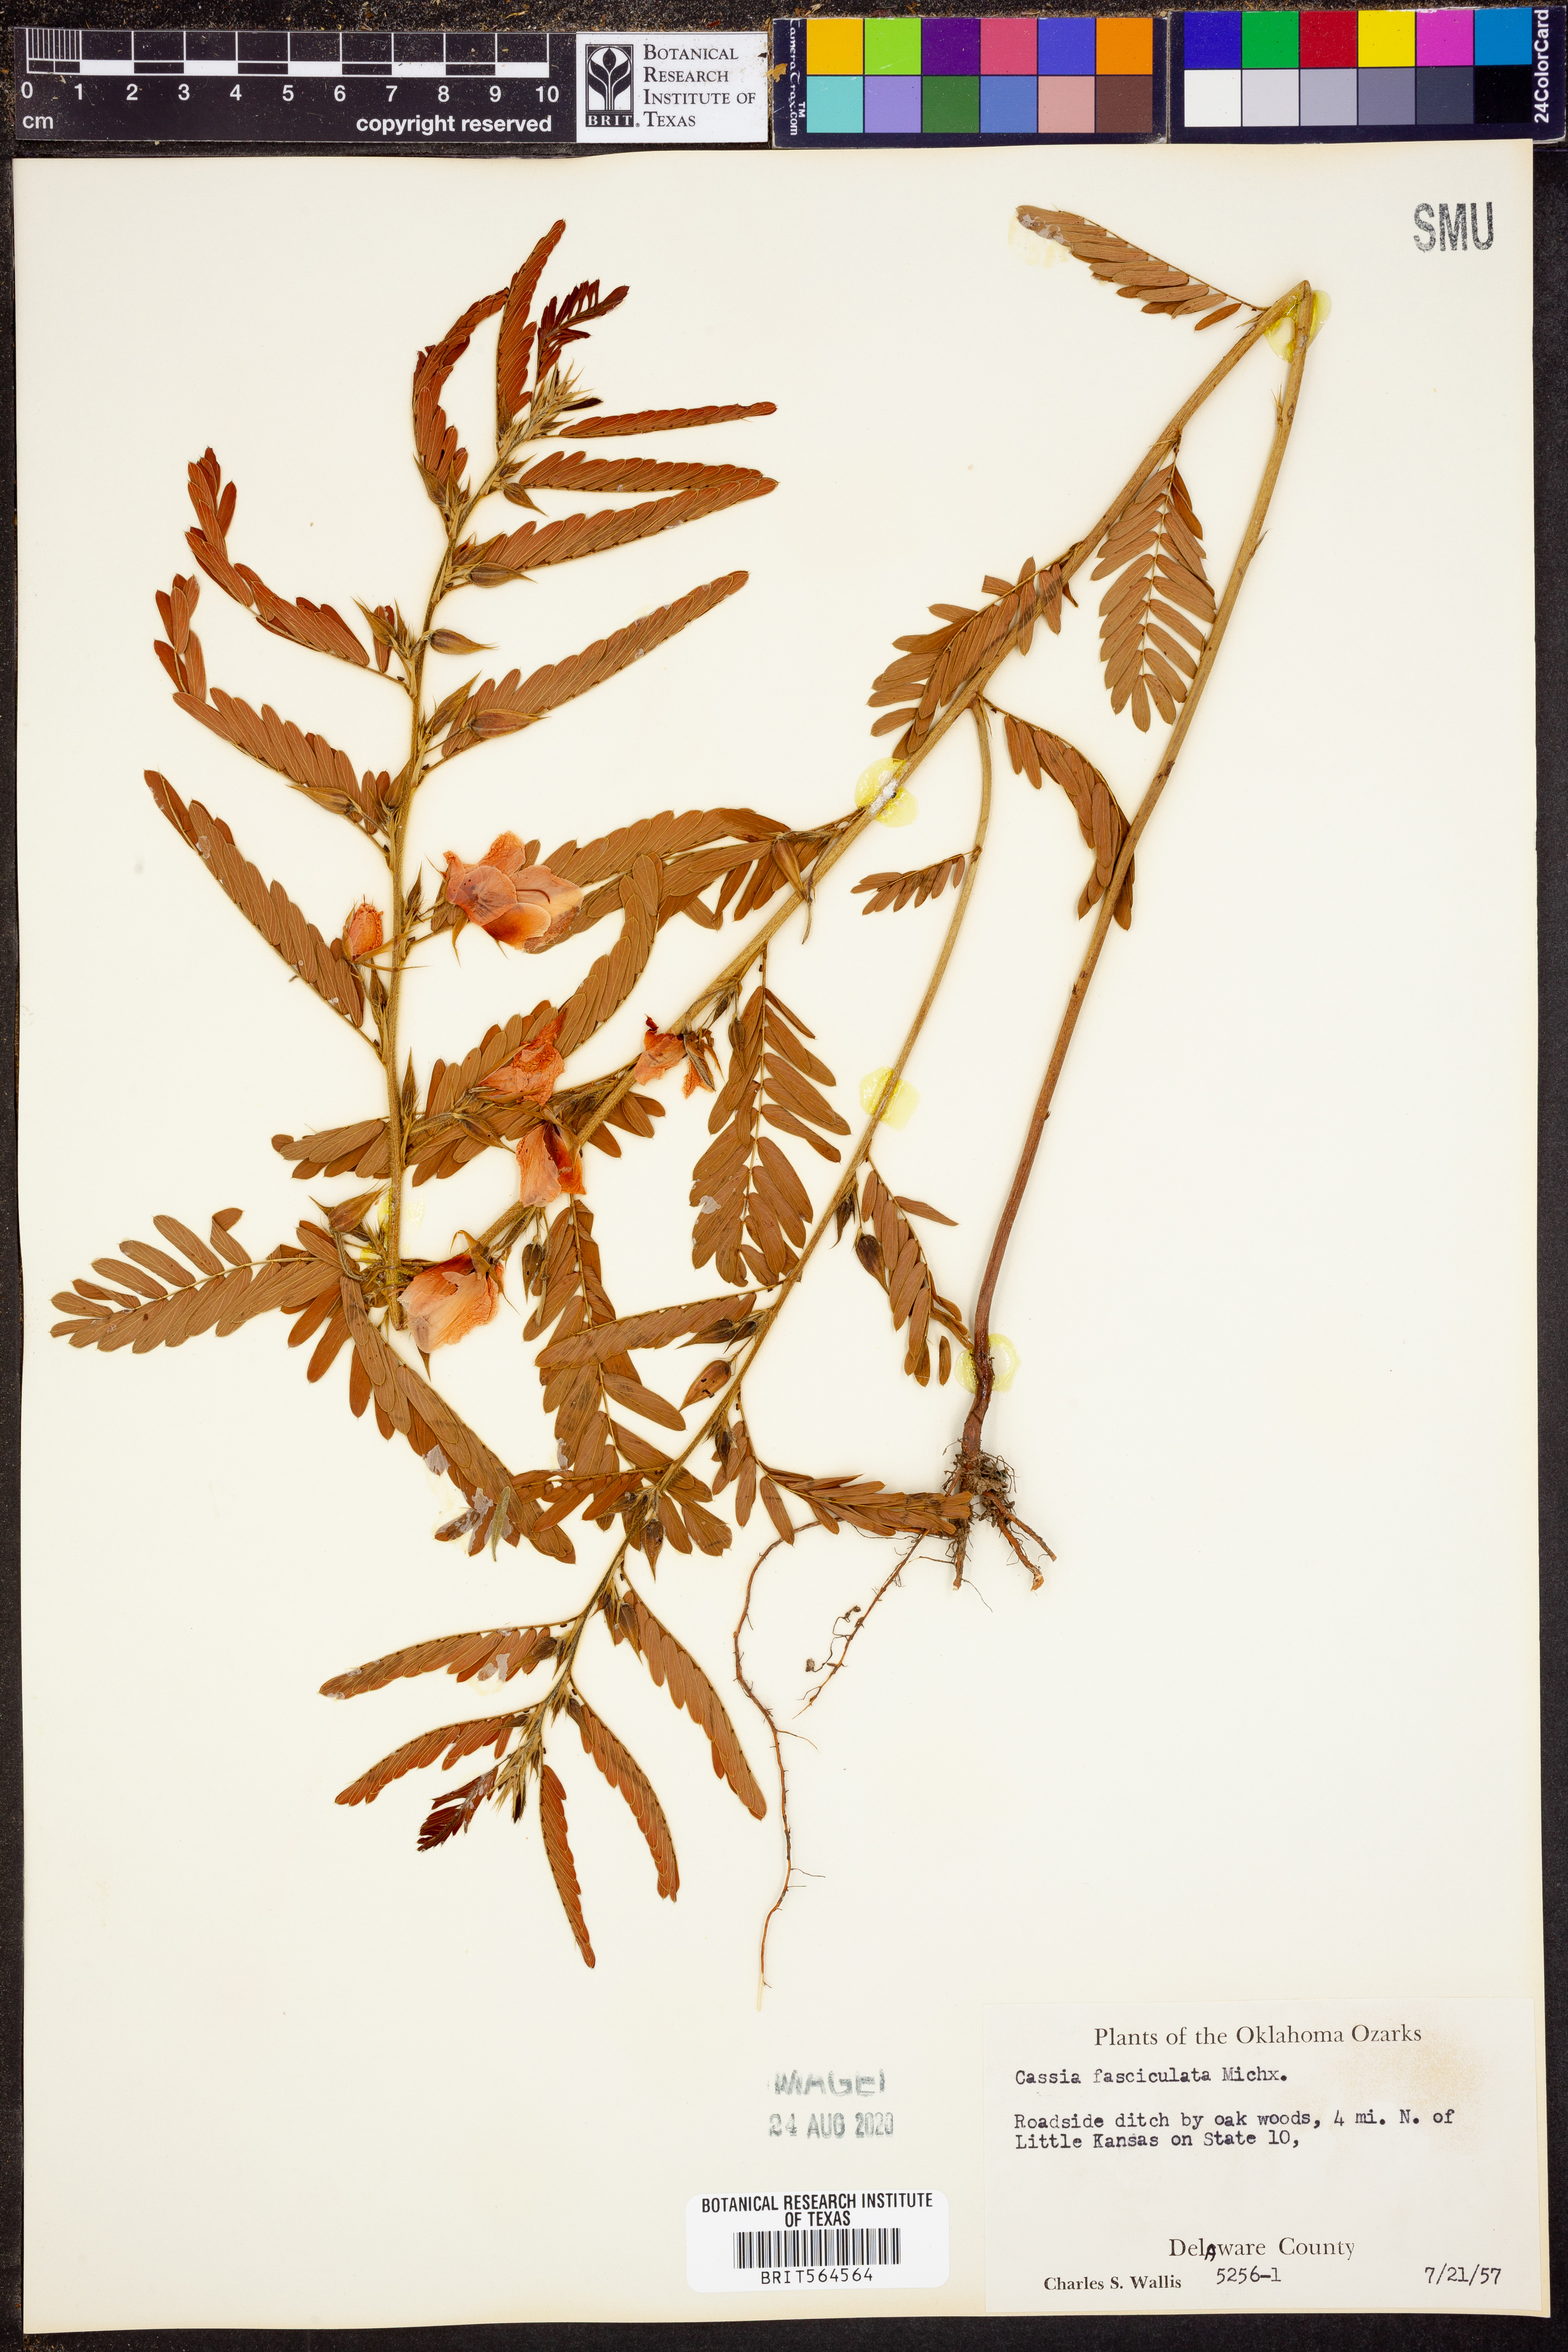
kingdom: Plantae
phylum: Tracheophyta
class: Magnoliopsida
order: Fabales
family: Fabaceae
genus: Chamaecrista
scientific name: Chamaecrista fasciculata
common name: Golden cassia
